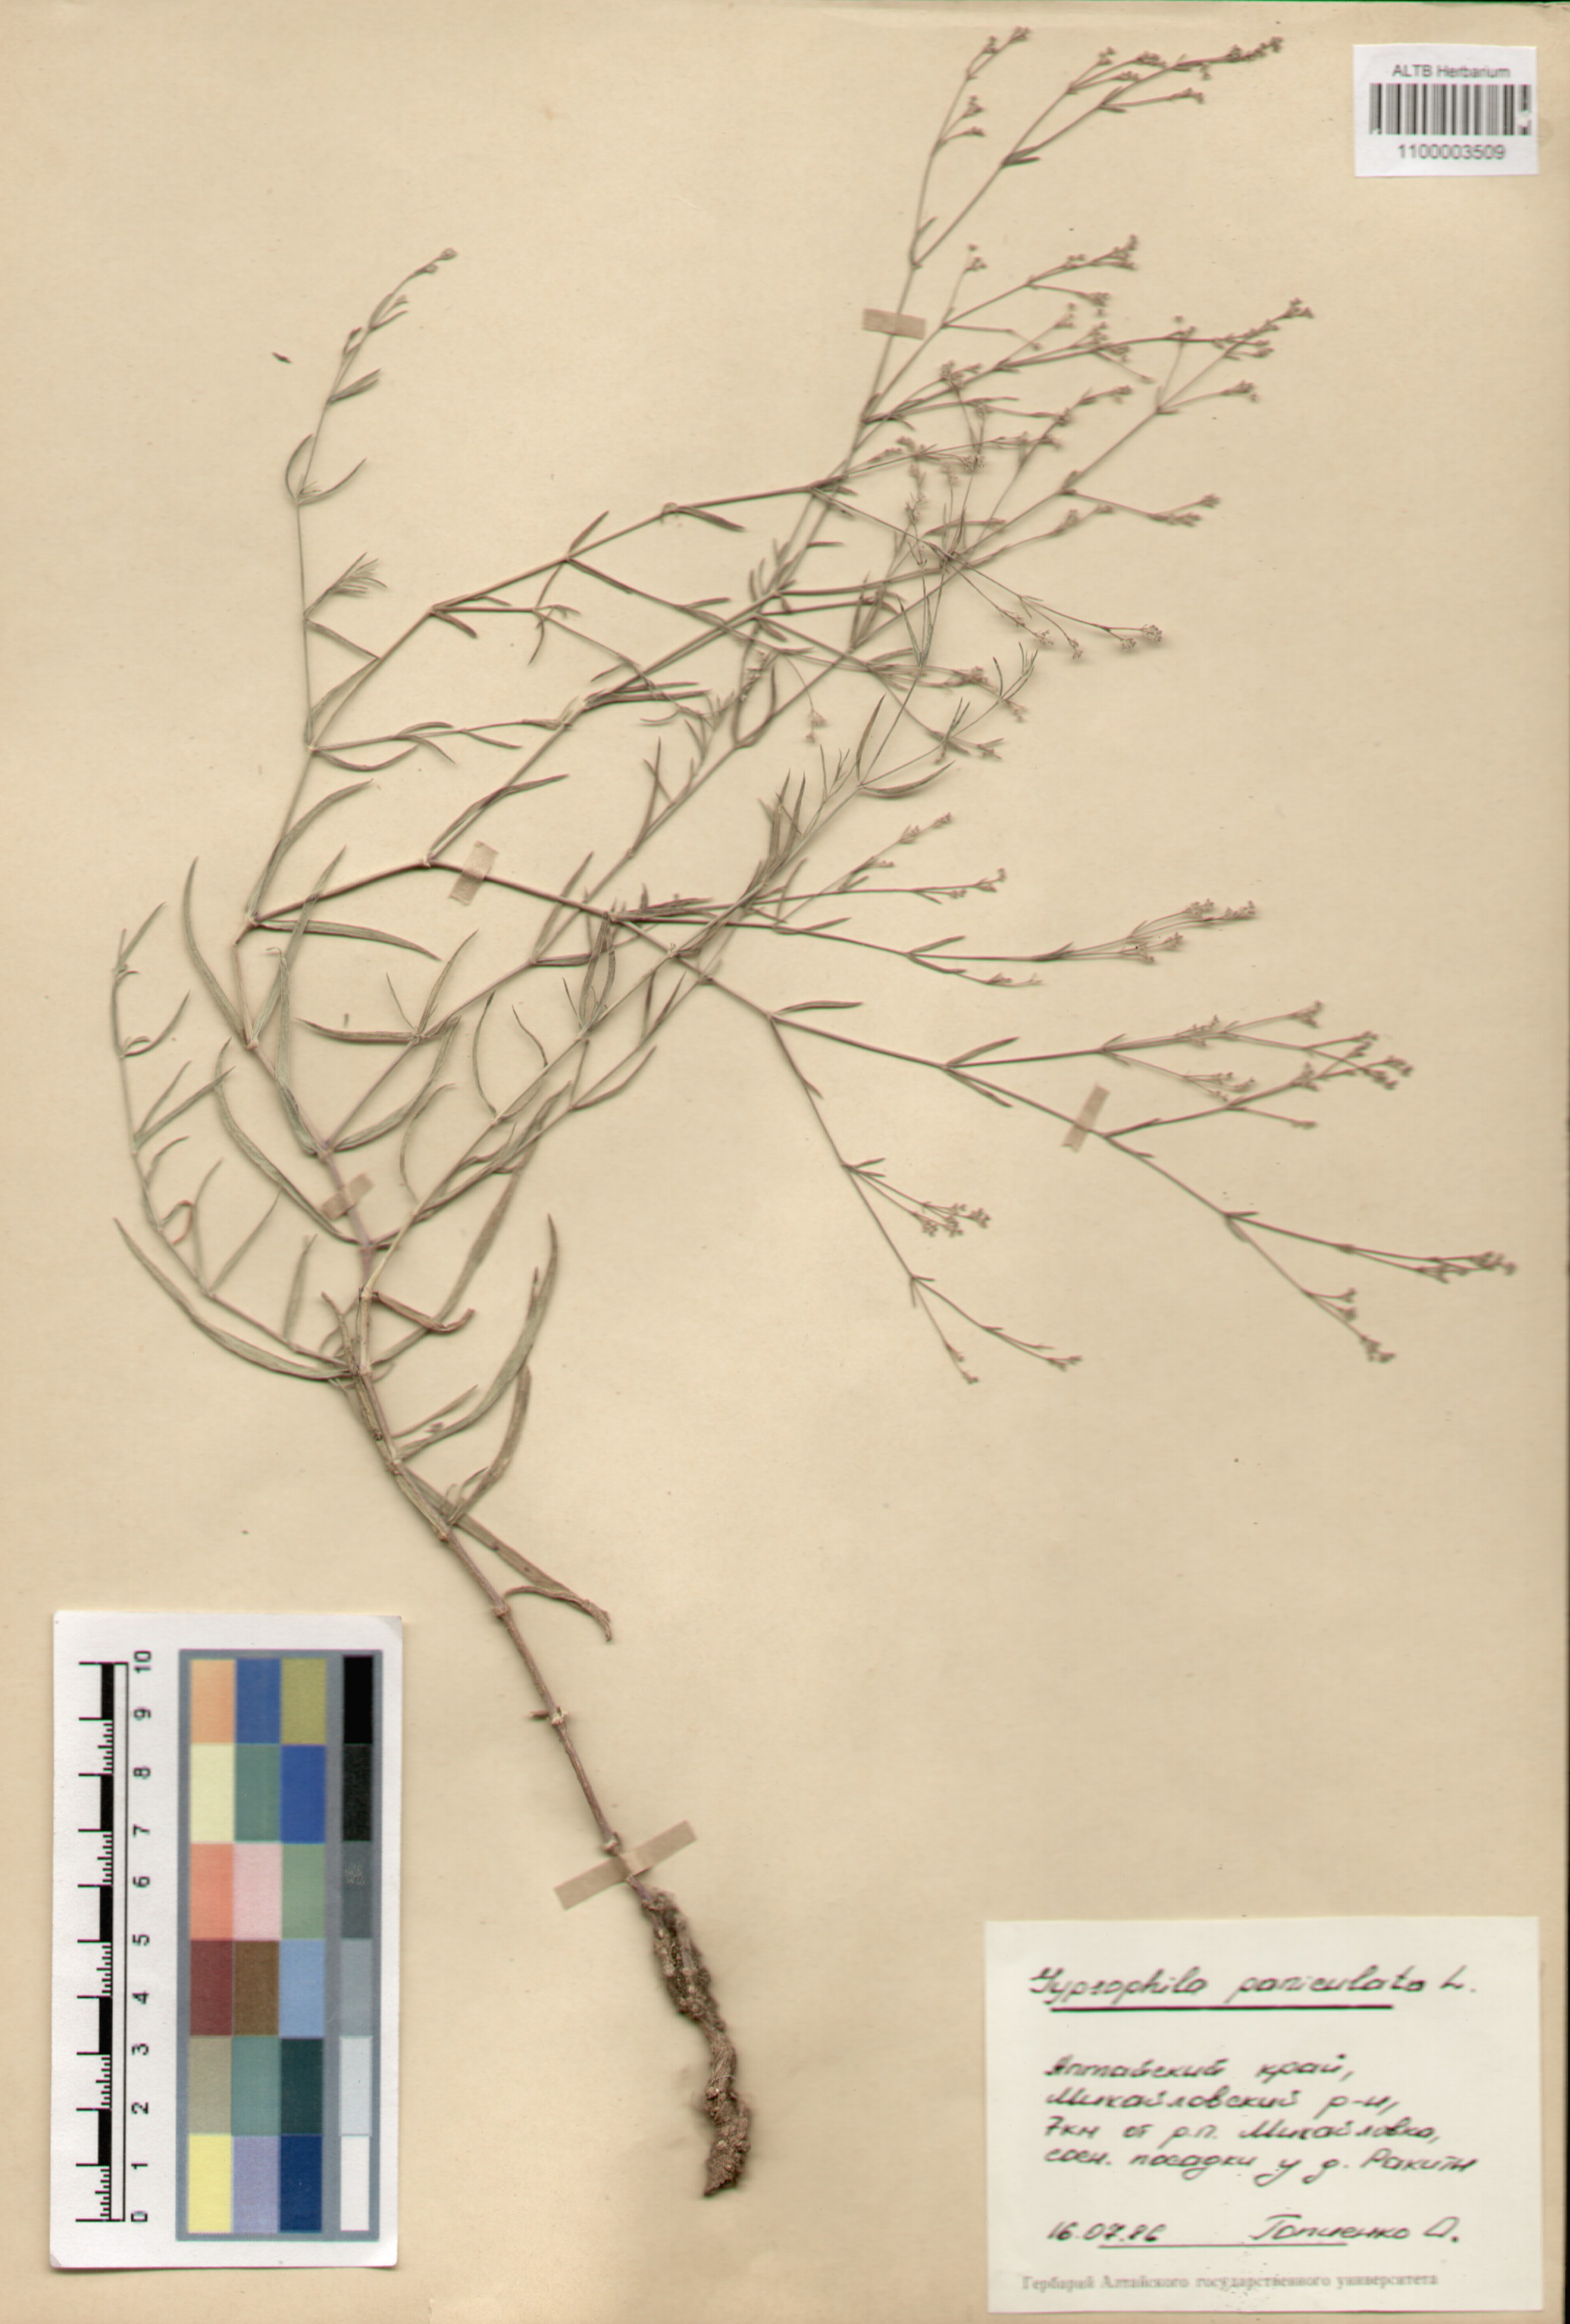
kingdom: Plantae
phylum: Tracheophyta
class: Magnoliopsida
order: Caryophyllales
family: Caryophyllaceae
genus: Gypsophila
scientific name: Gypsophila paniculata
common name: Baby's-breath
